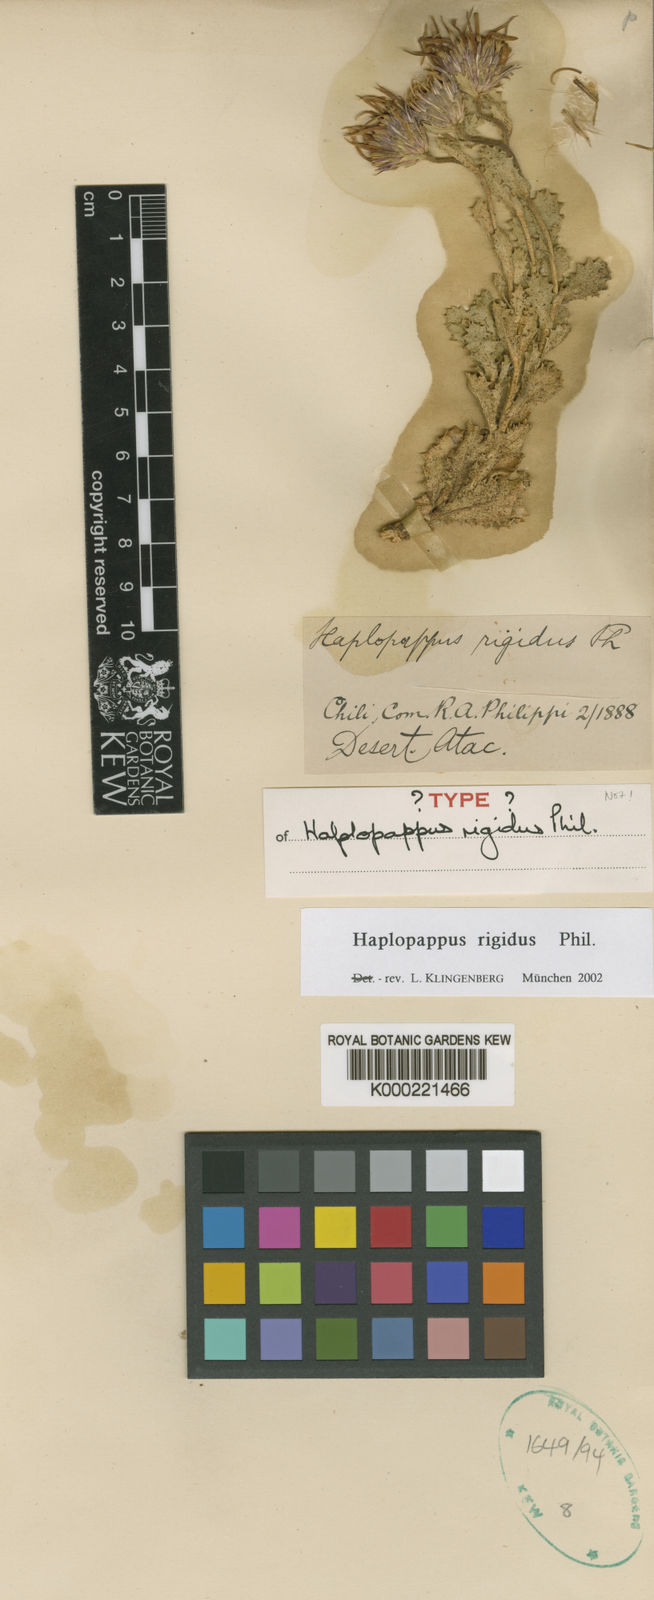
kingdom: Plantae
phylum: Tracheophyta
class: Magnoliopsida
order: Asterales
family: Asteraceae
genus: Haplopappus
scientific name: Haplopappus rigidus
